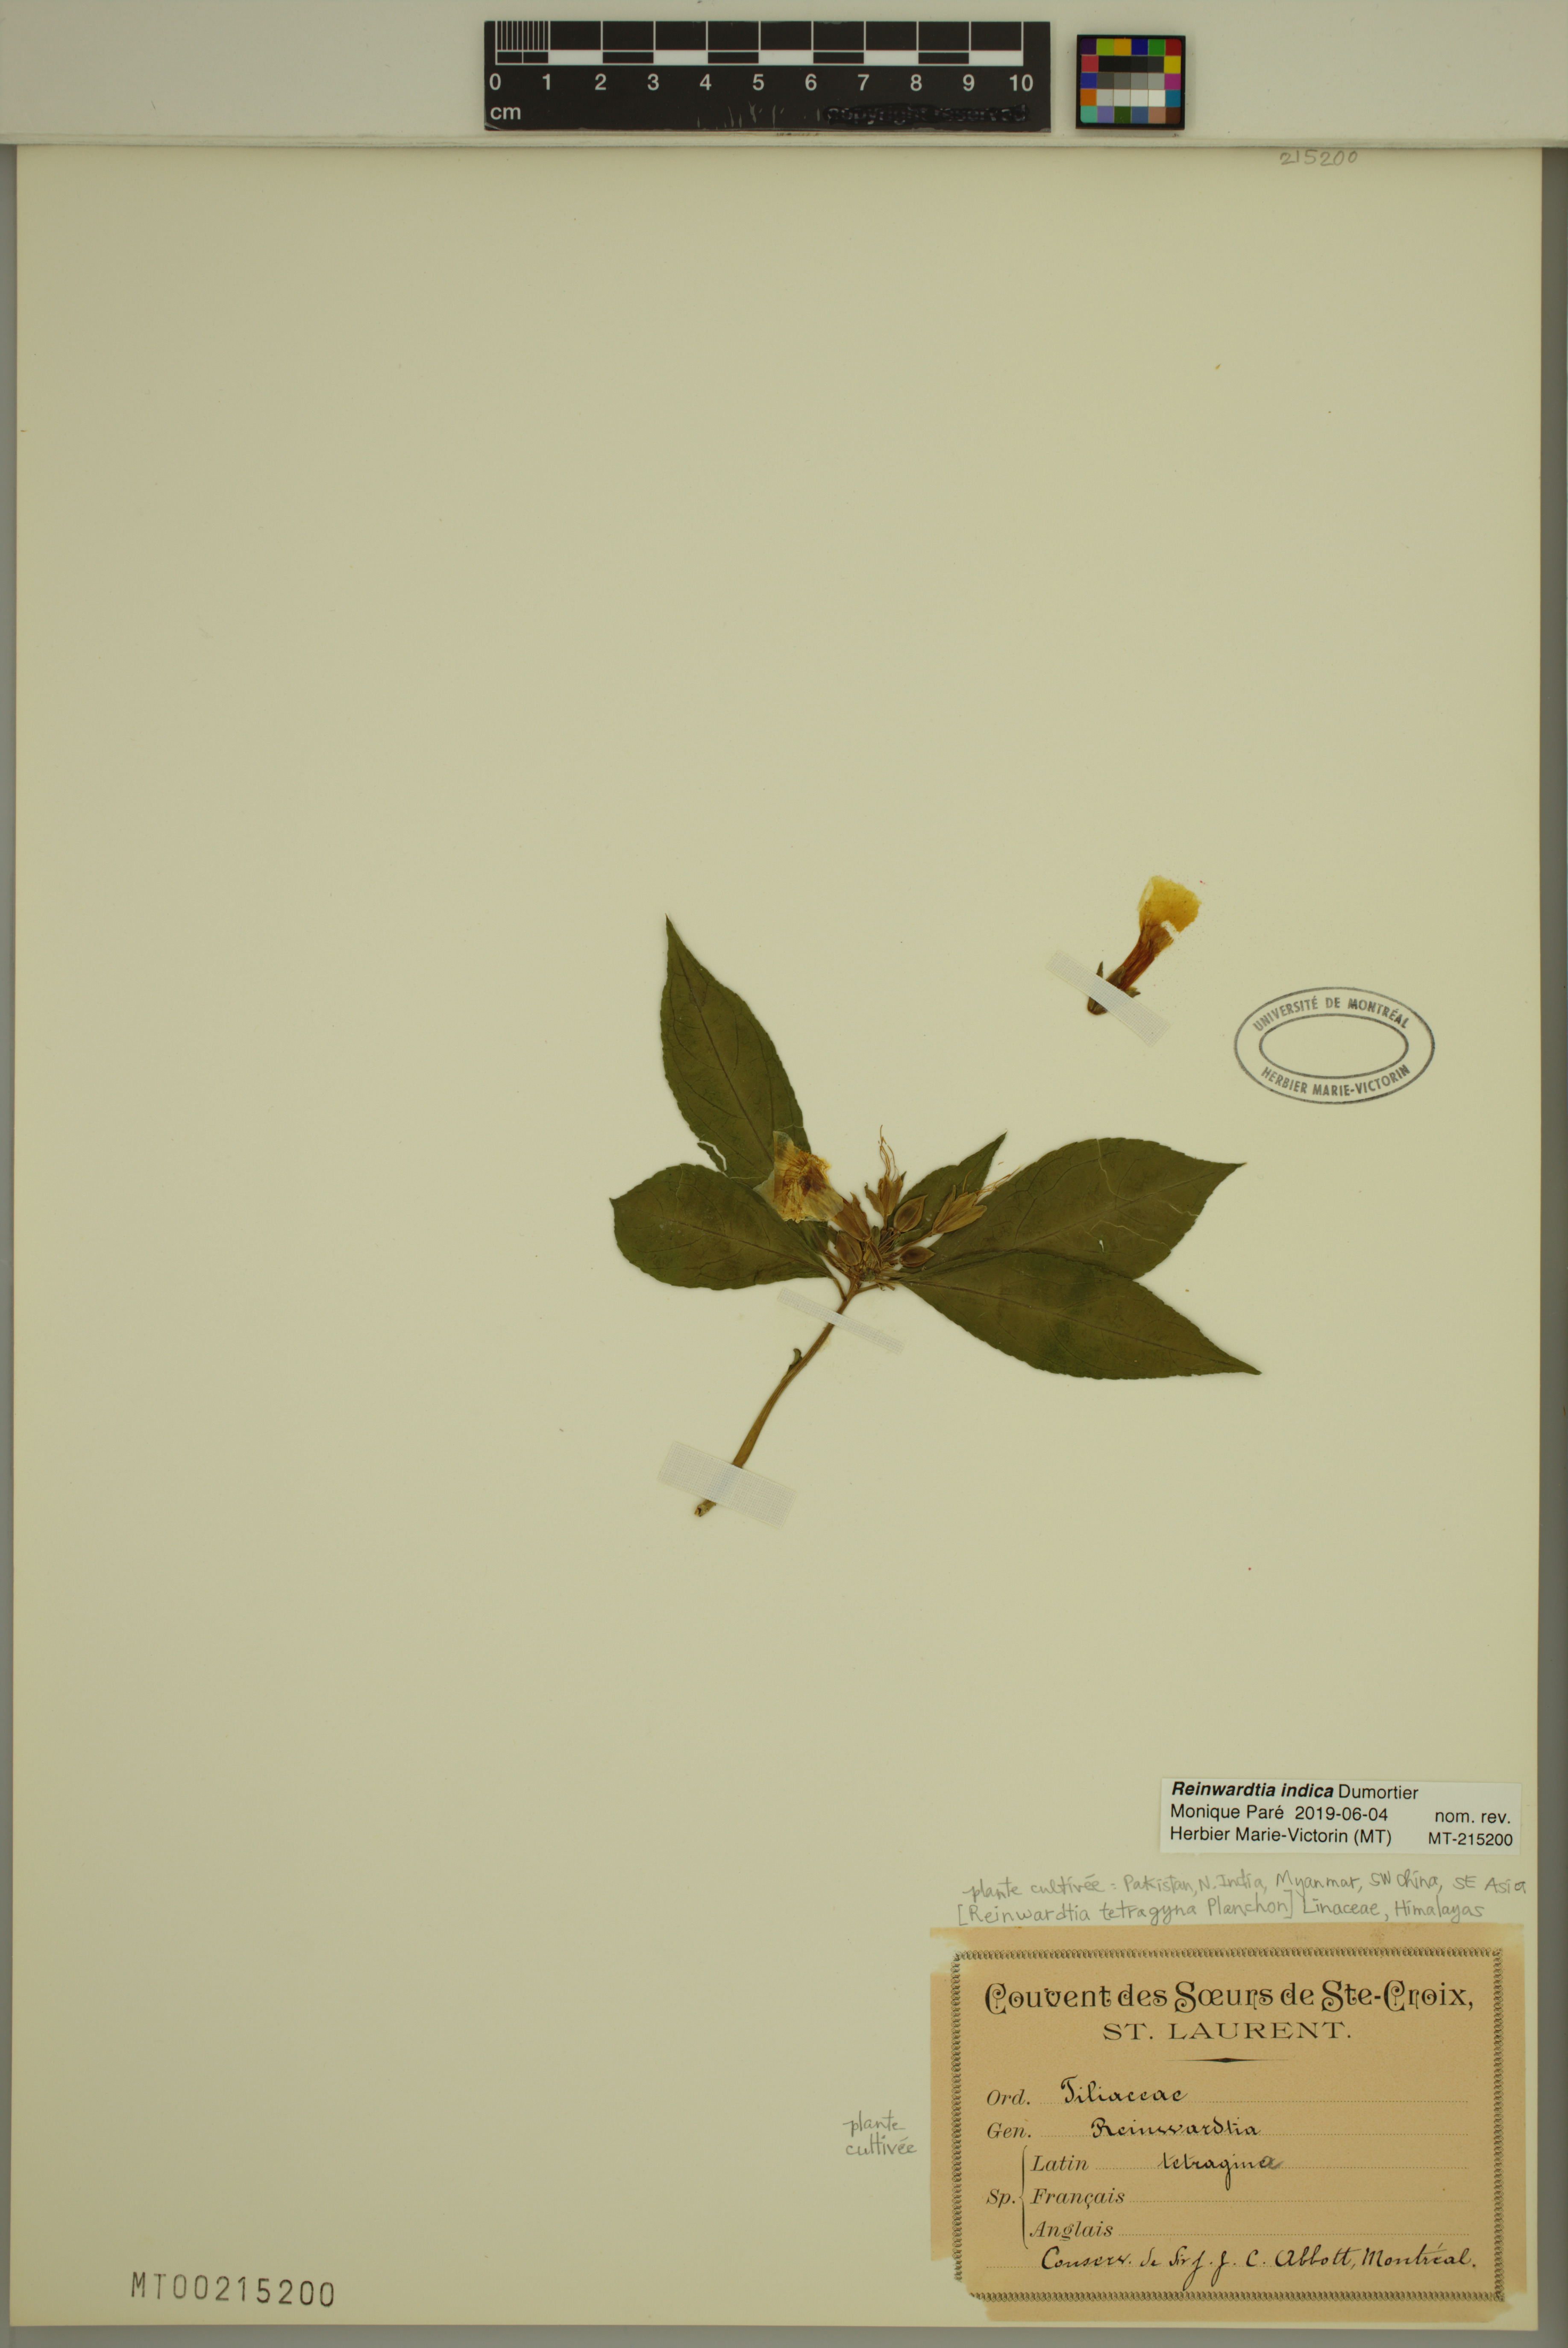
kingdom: Plantae
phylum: Tracheophyta
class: Magnoliopsida
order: Malpighiales
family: Linaceae
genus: Reinwardtia
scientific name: Reinwardtia indica
